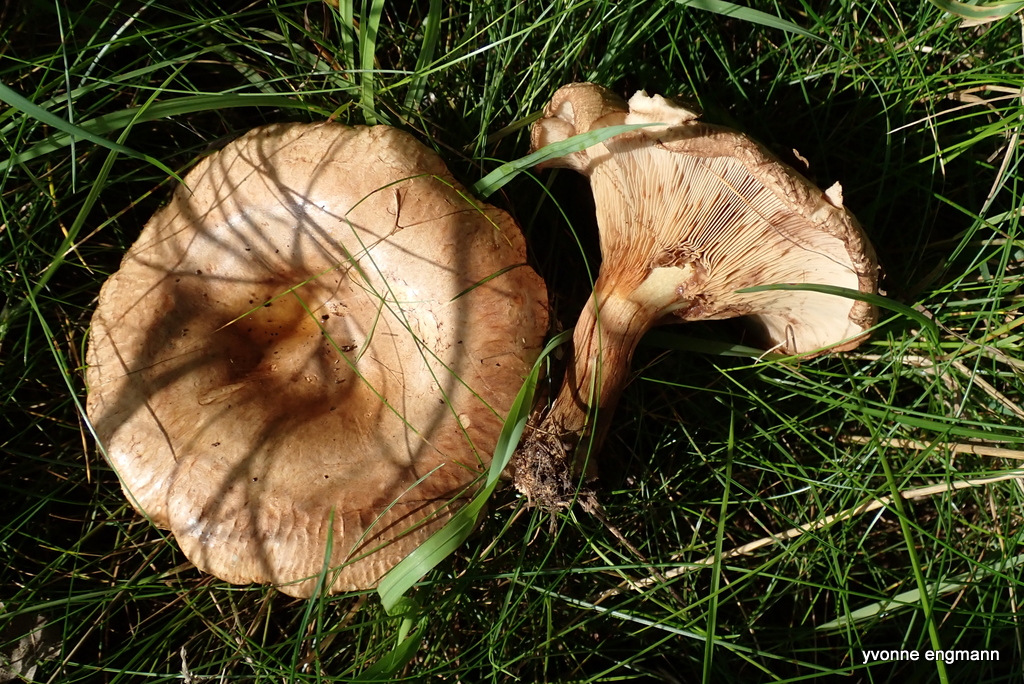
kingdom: Fungi
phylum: Basidiomycota
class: Agaricomycetes
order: Boletales
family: Paxillaceae
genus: Paxillus
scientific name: Paxillus involutus
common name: almindelig netbladhat
